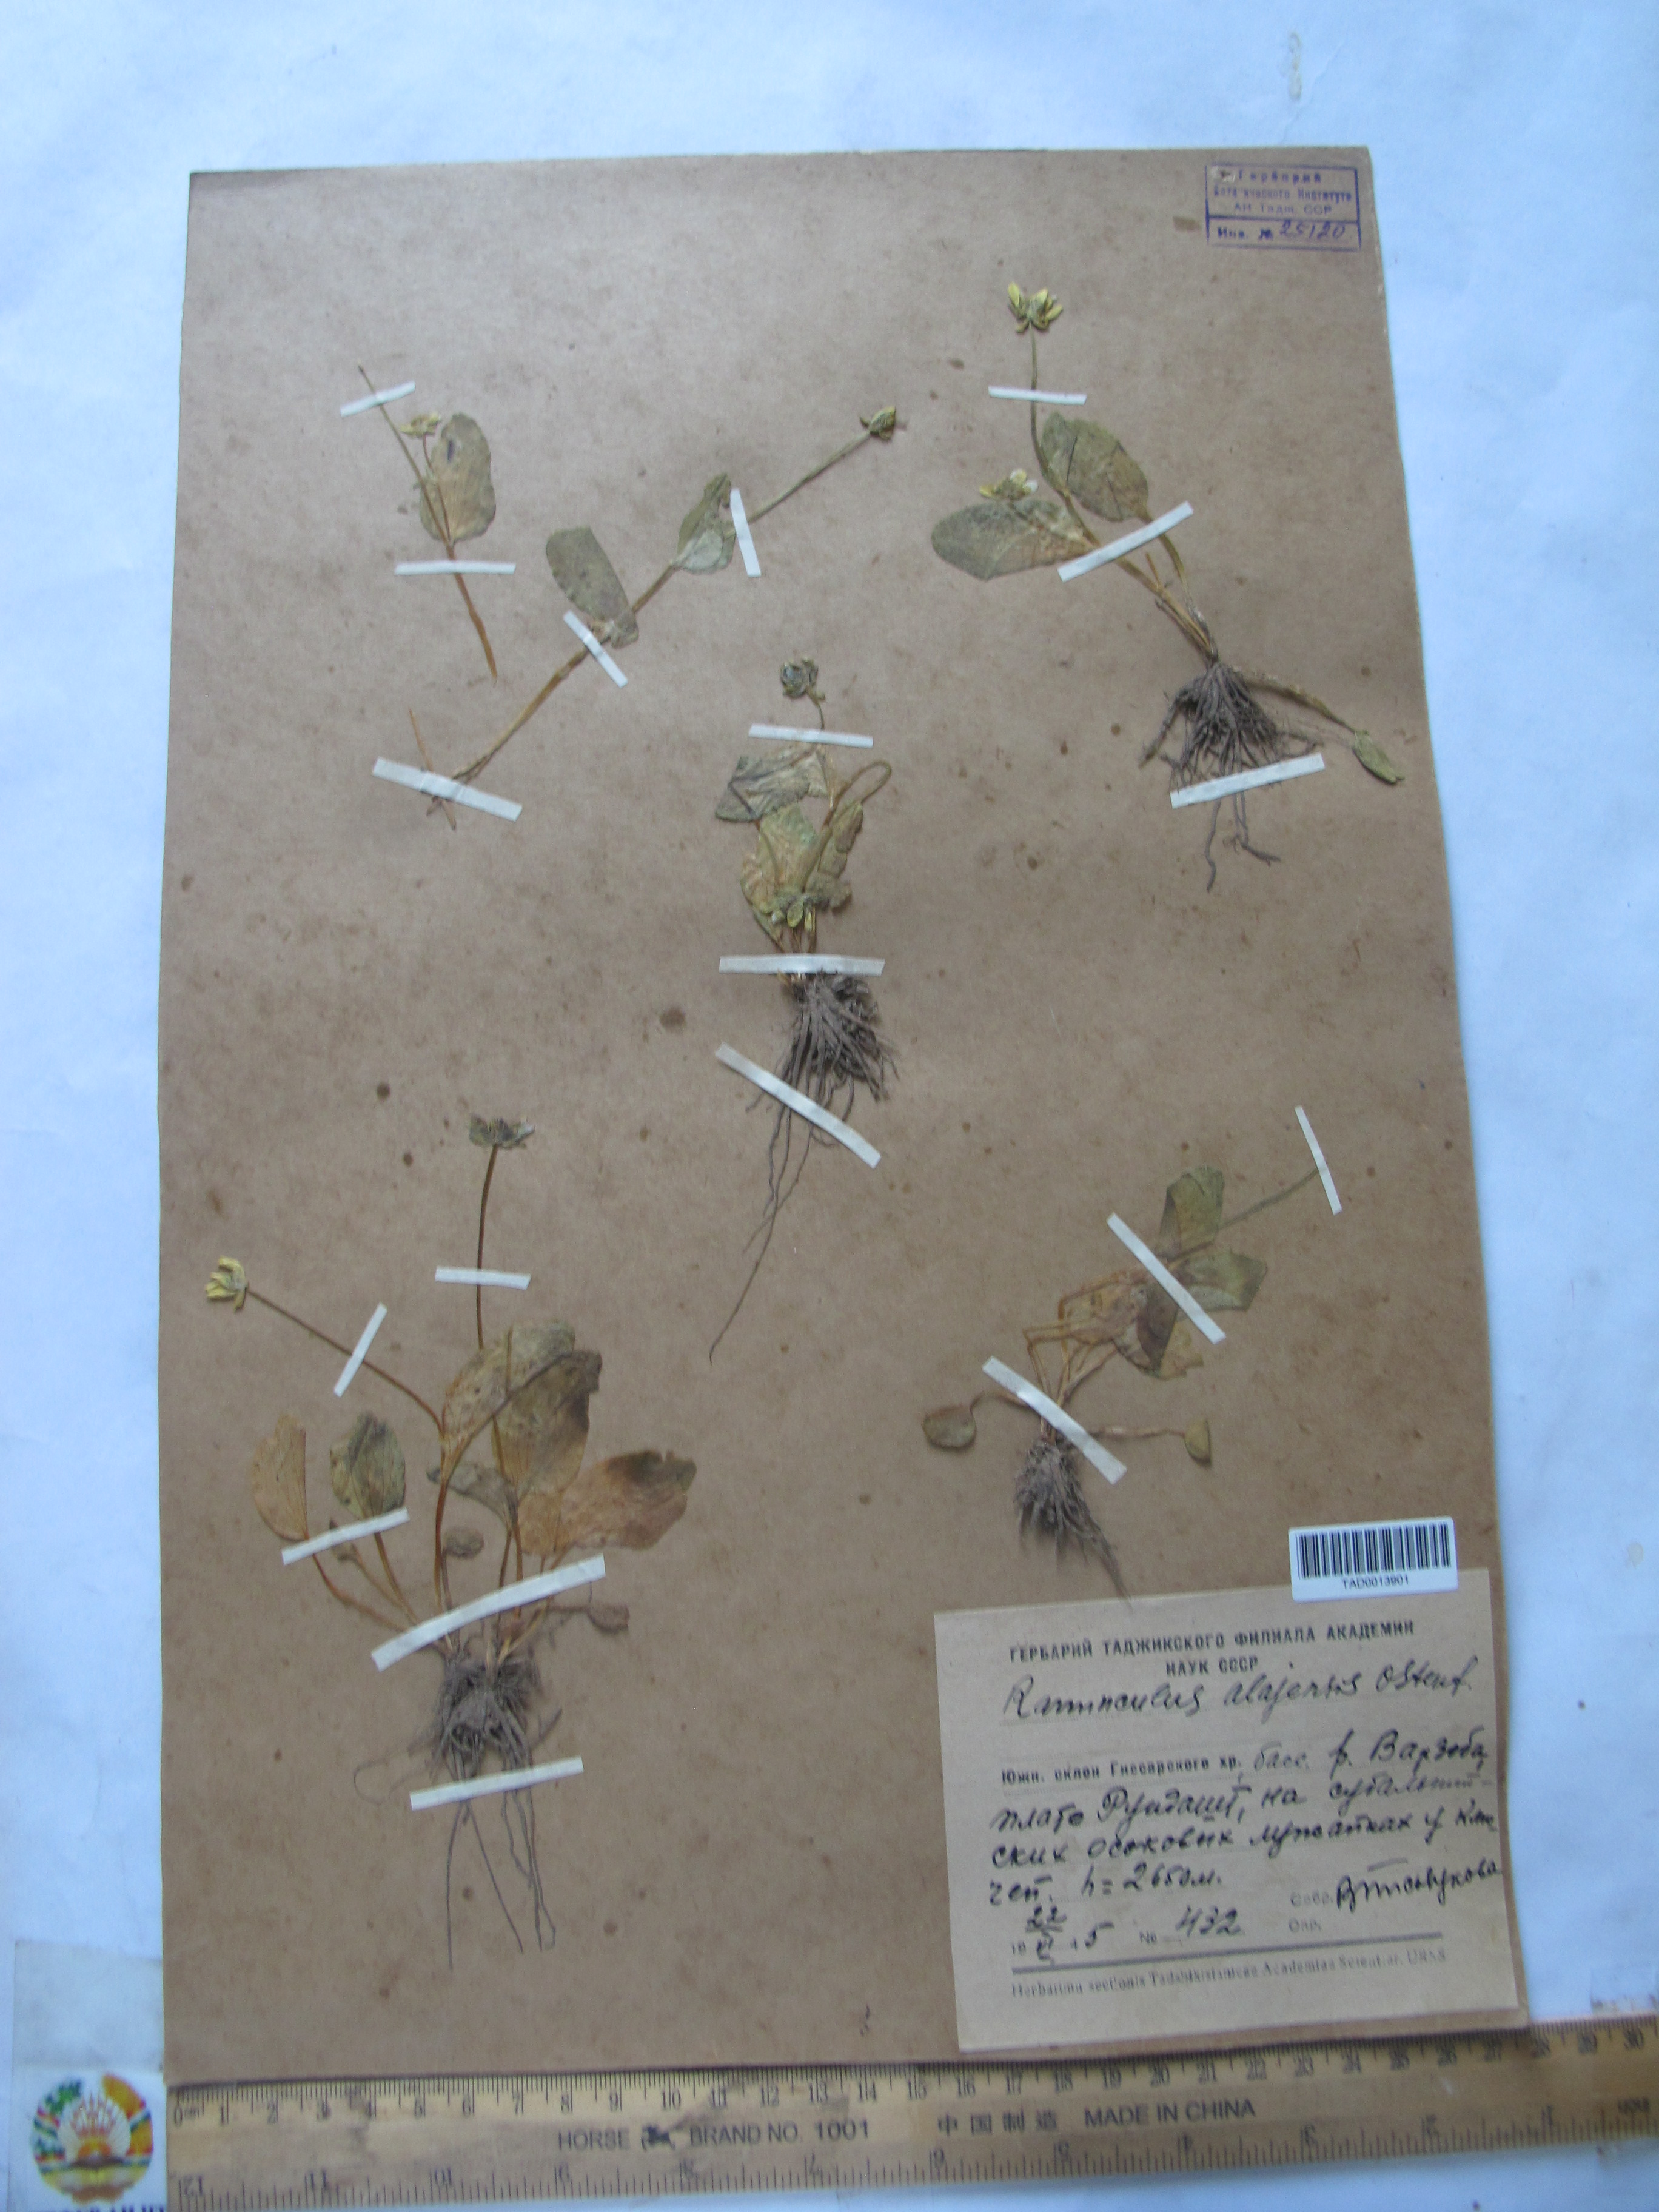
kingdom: Plantae
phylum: Tracheophyta
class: Magnoliopsida
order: Ranunculales
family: Ranunculaceae
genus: Ranunculus
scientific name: Ranunculus alaiensis
